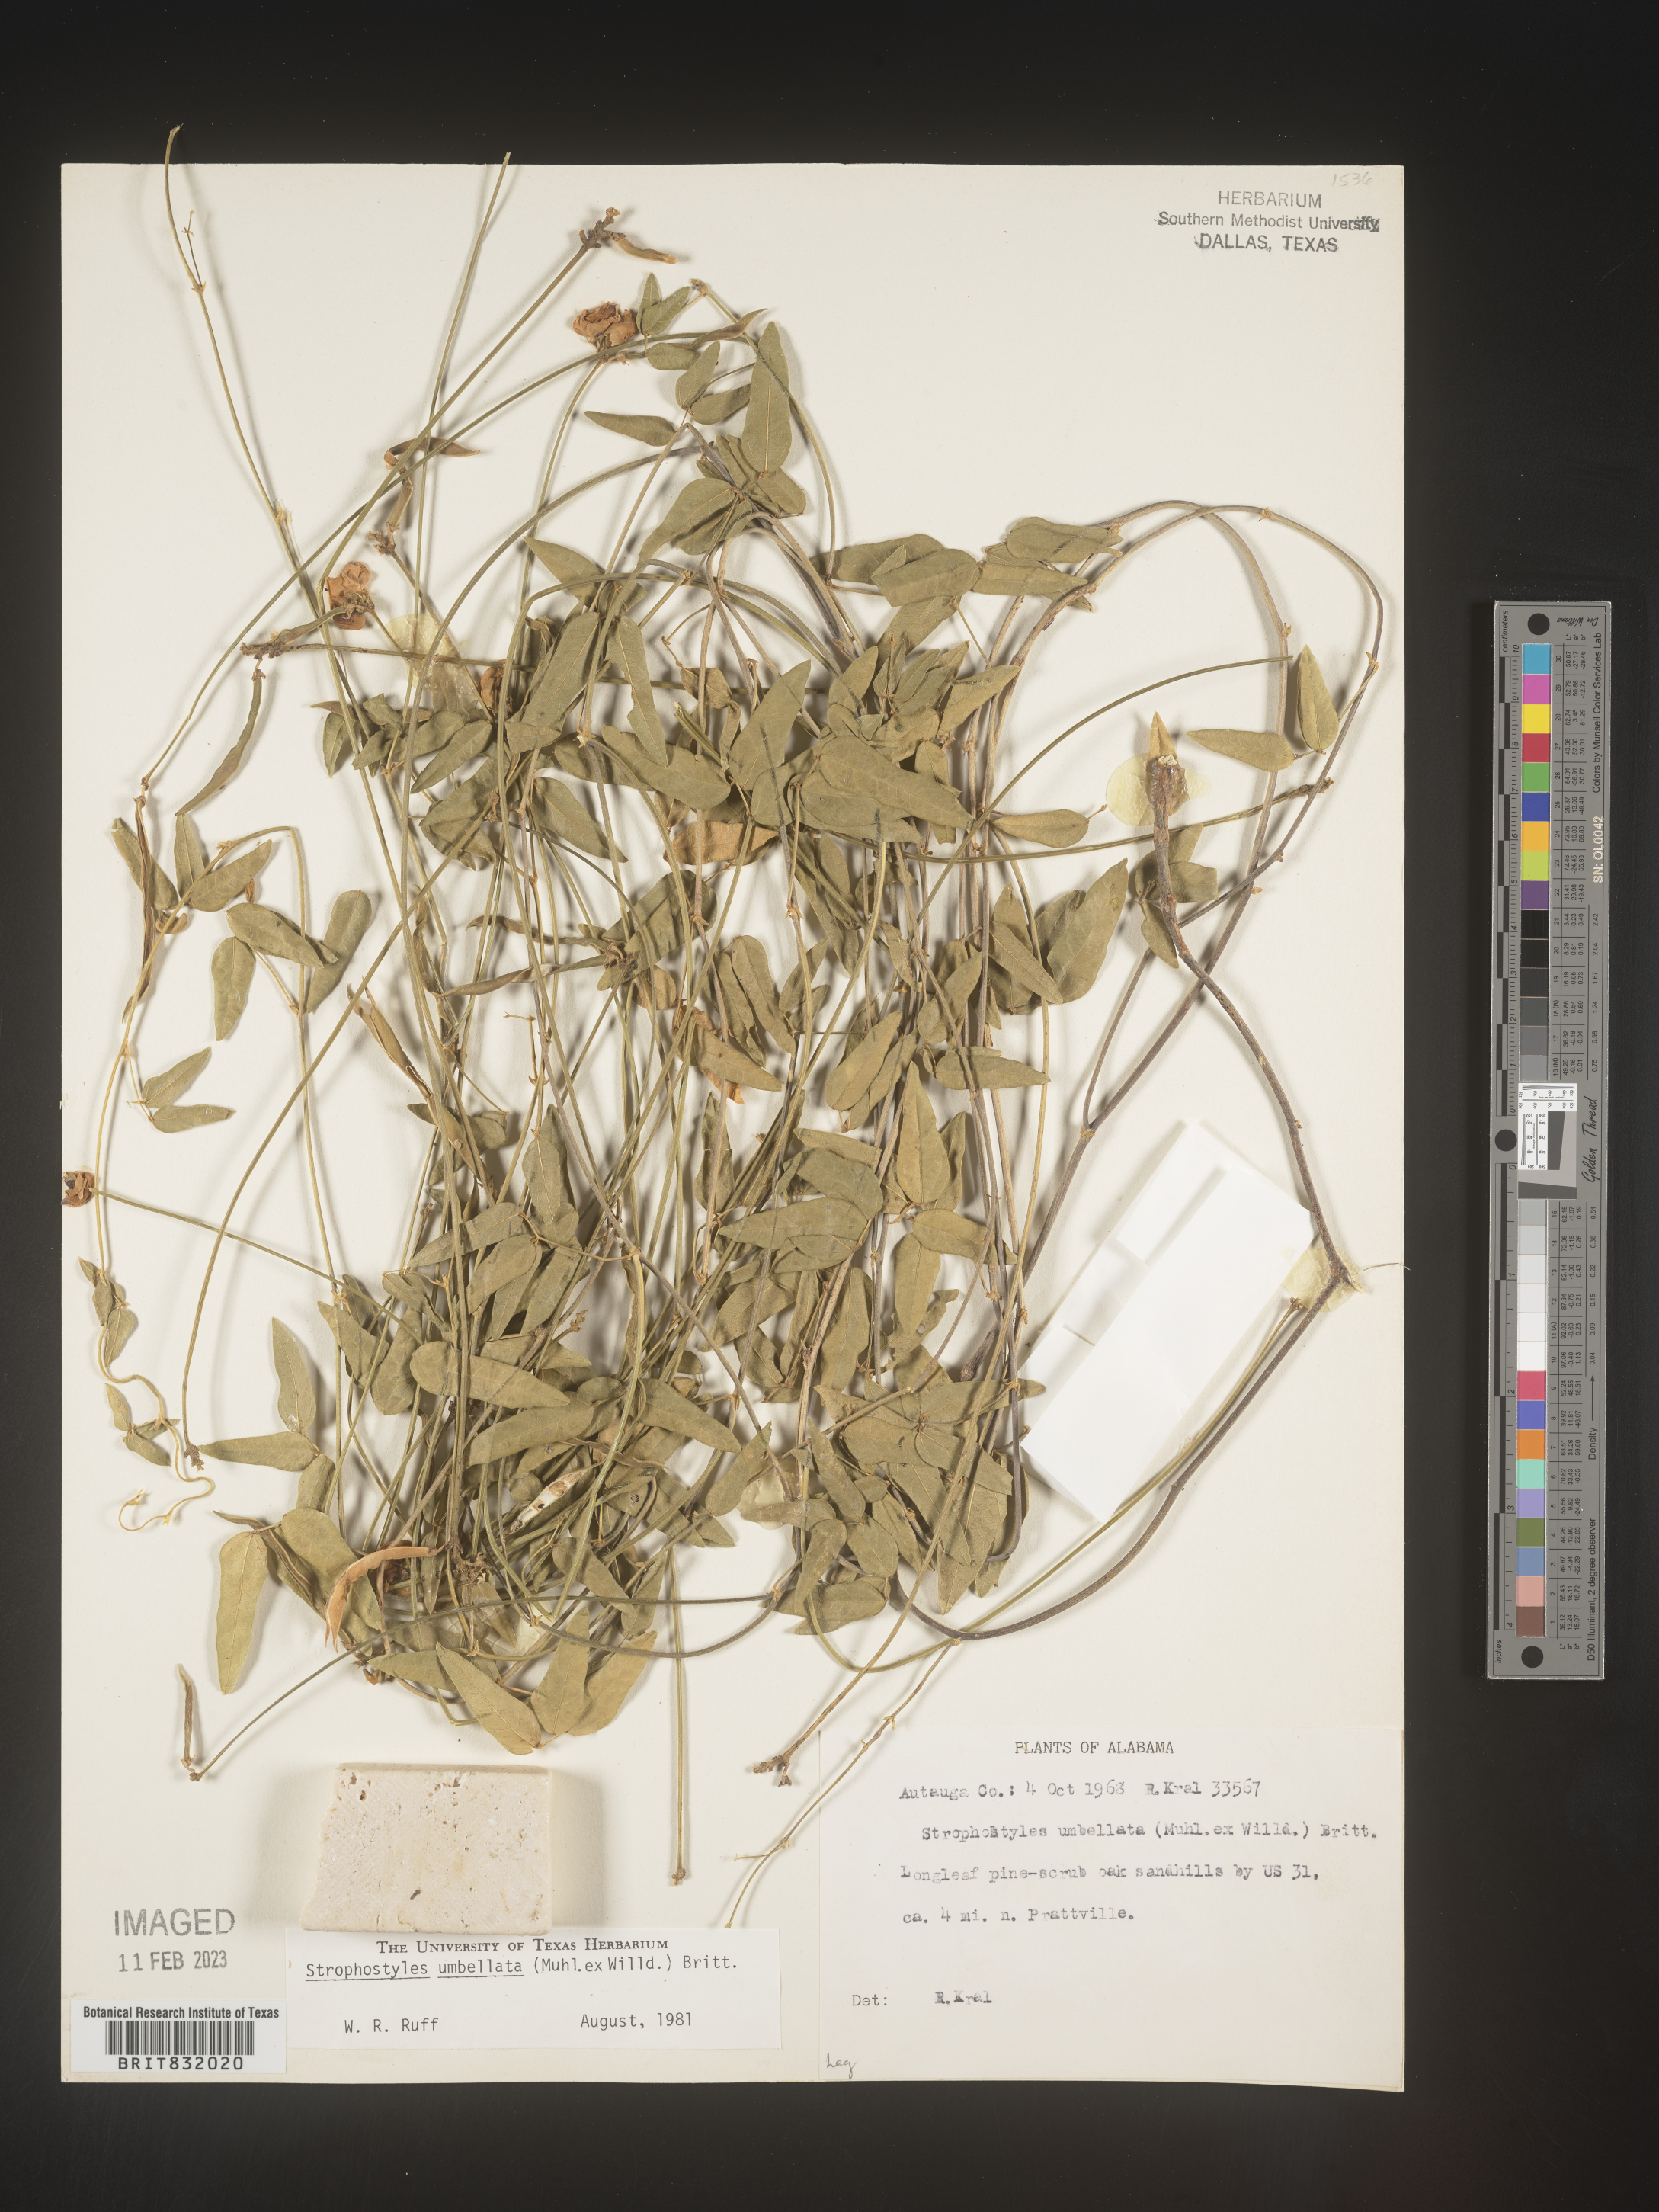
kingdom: Plantae
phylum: Tracheophyta
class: Magnoliopsida
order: Fabales
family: Fabaceae
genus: Strophostyles
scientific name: Strophostyles umbellata
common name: Perennial wild bean
